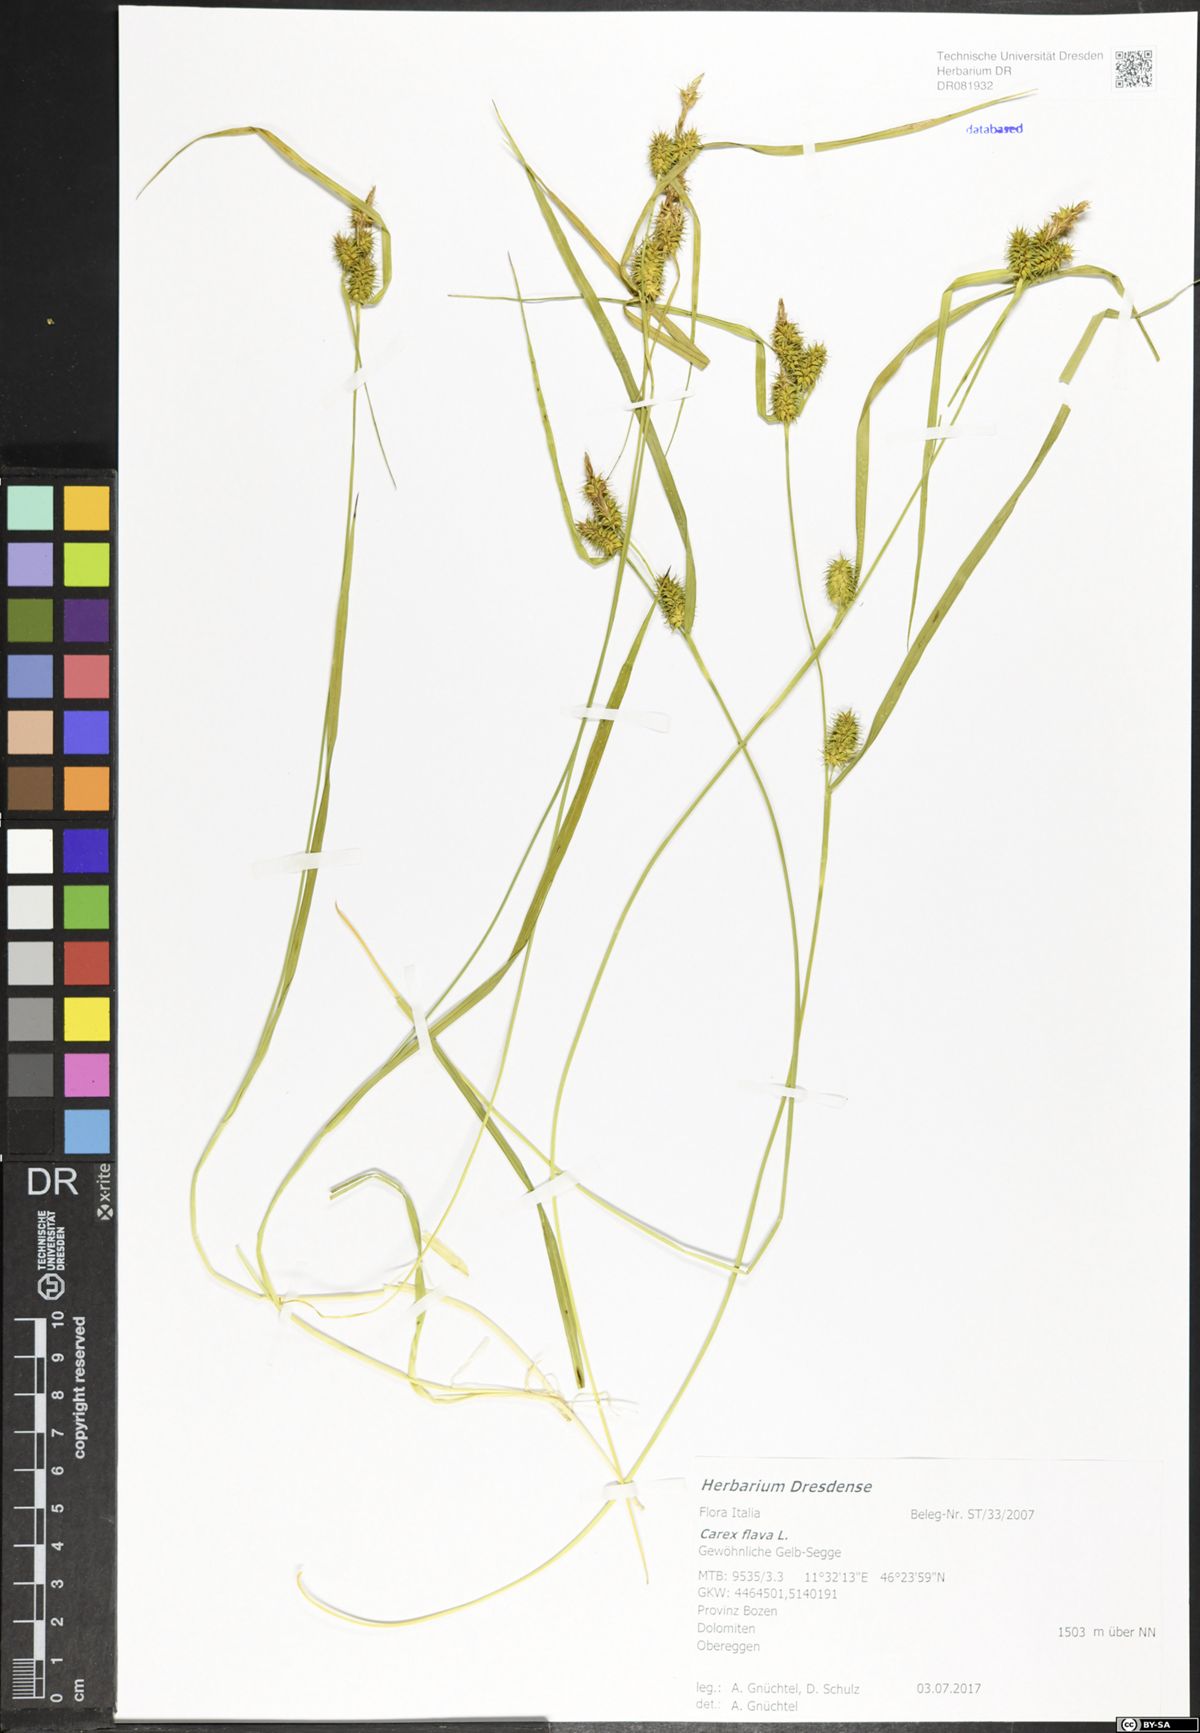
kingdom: Plantae
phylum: Tracheophyta
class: Liliopsida
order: Poales
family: Cyperaceae
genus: Carex
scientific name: Carex flava
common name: Large yellow-sedge
